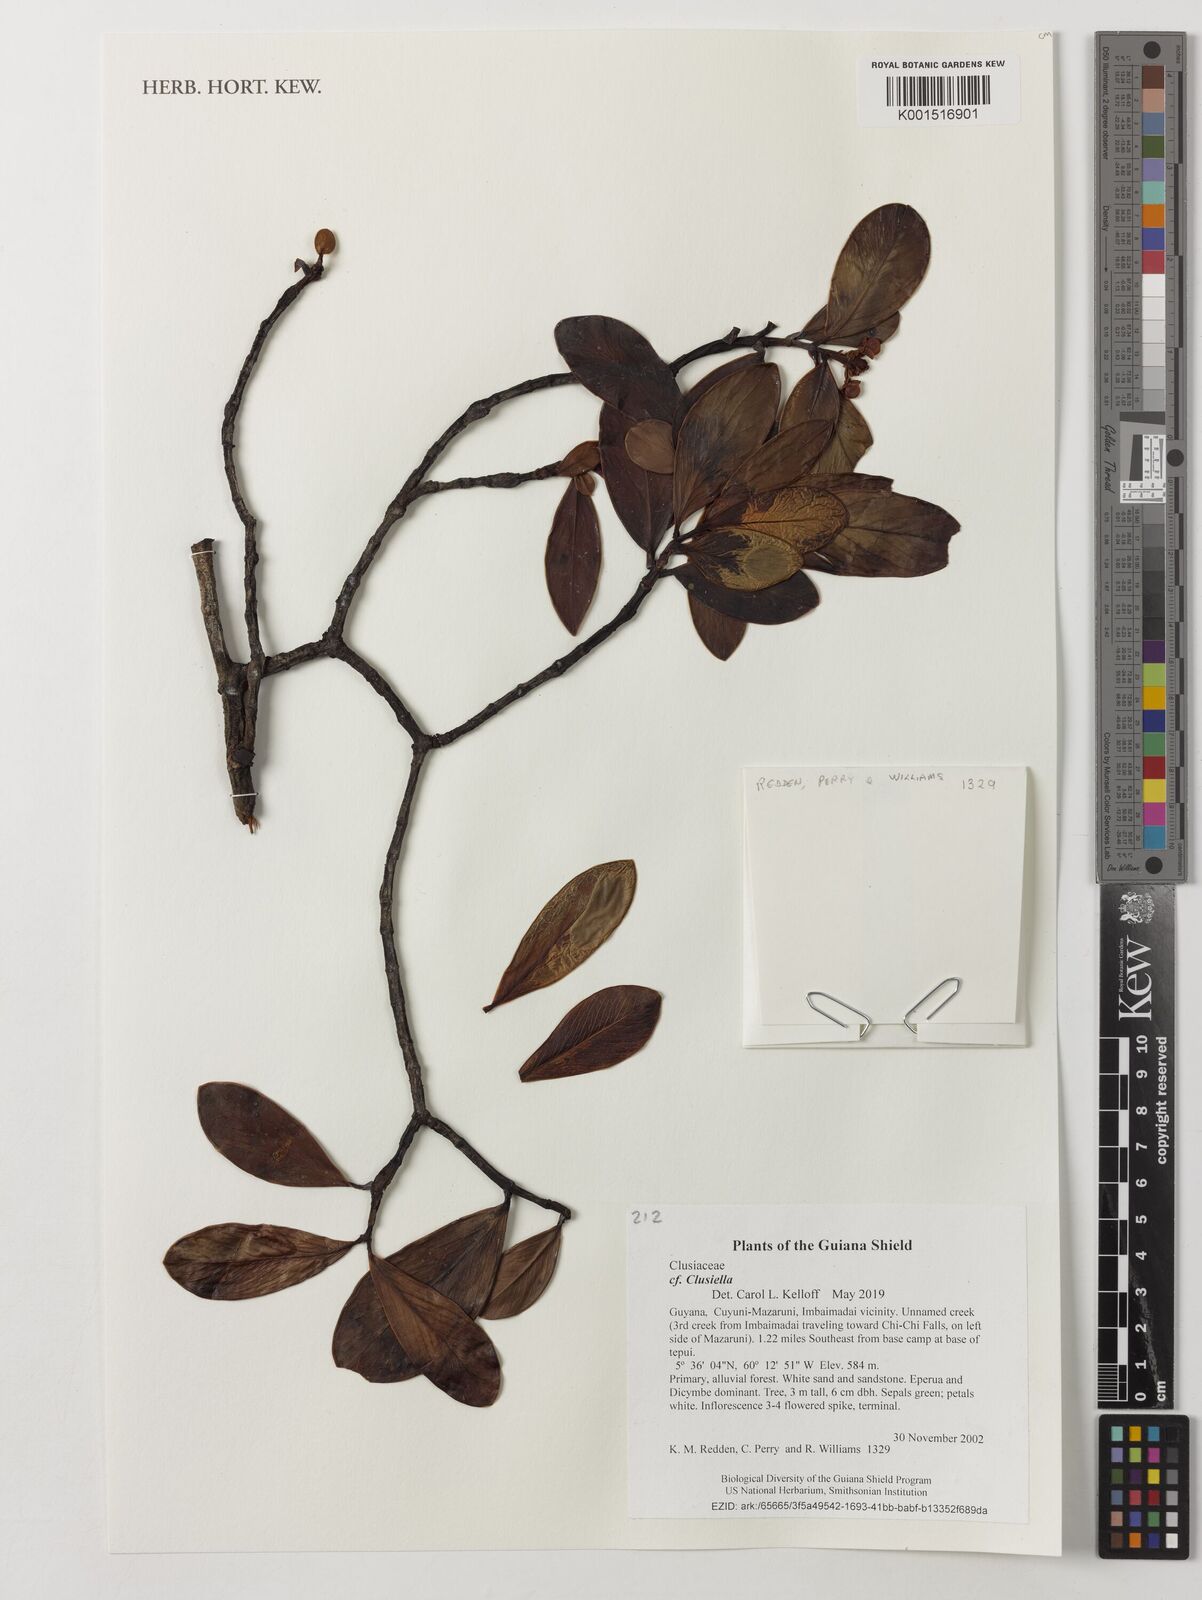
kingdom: Plantae
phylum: Tracheophyta
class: Magnoliopsida
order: Malpighiales
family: Calophyllaceae
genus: Clusiella
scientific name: Clusiella
